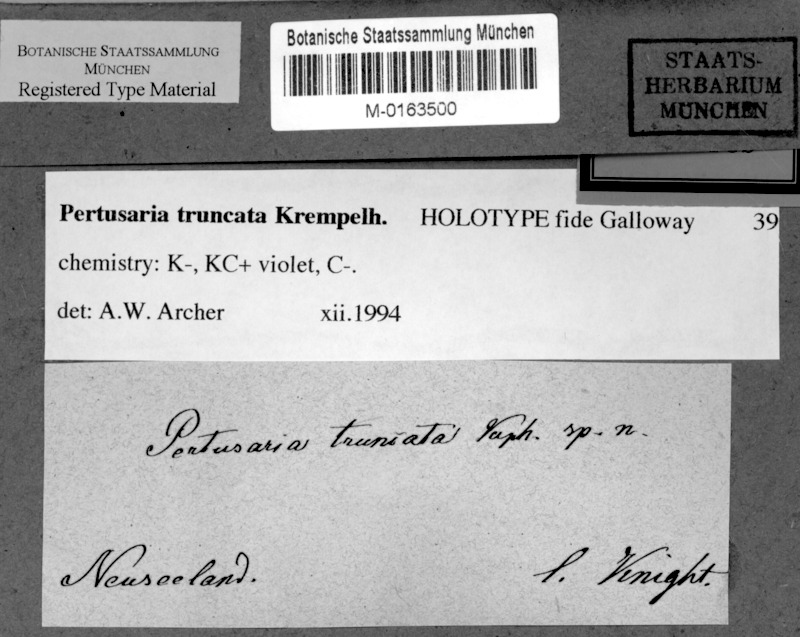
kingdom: Fungi
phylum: Ascomycota
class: Lecanoromycetes
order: Pertusariales
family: Pertusariaceae
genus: Lepra
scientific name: Lepra truncata
